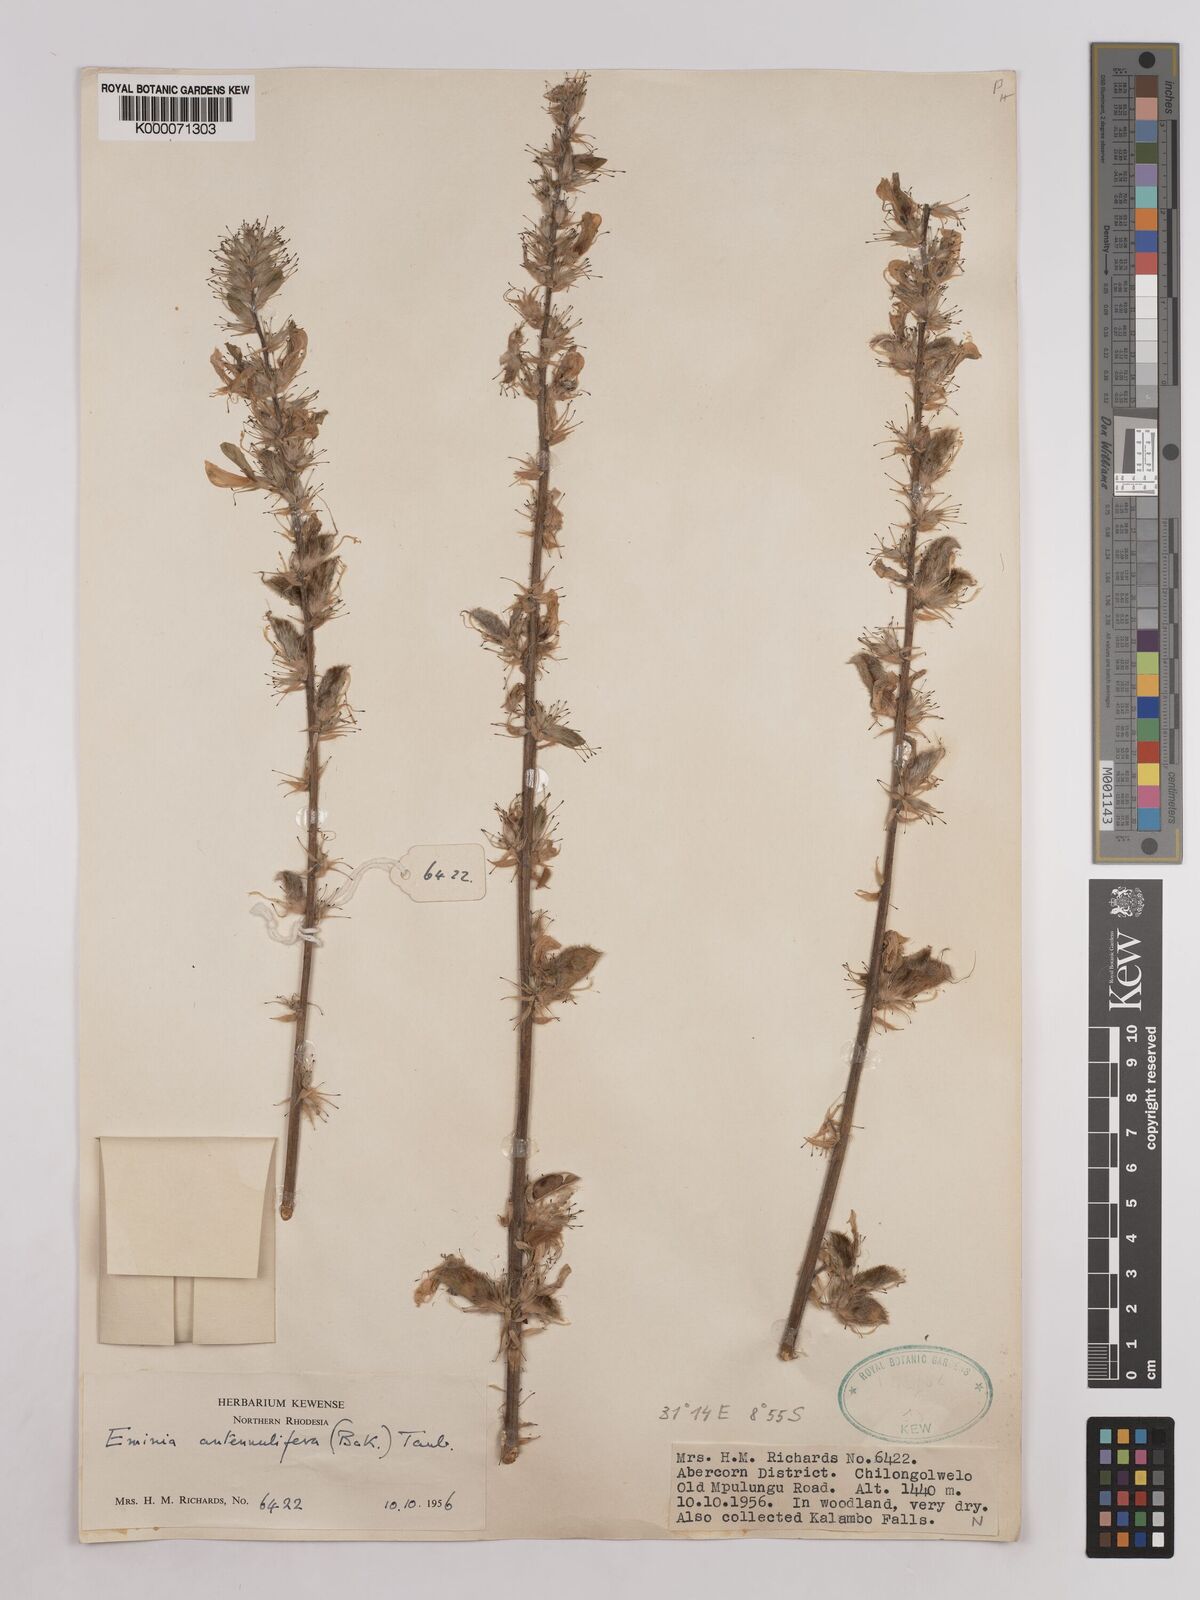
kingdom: Plantae
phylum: Tracheophyta
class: Magnoliopsida
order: Fabales
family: Fabaceae
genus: Eminia
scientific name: Eminia antennulifera
